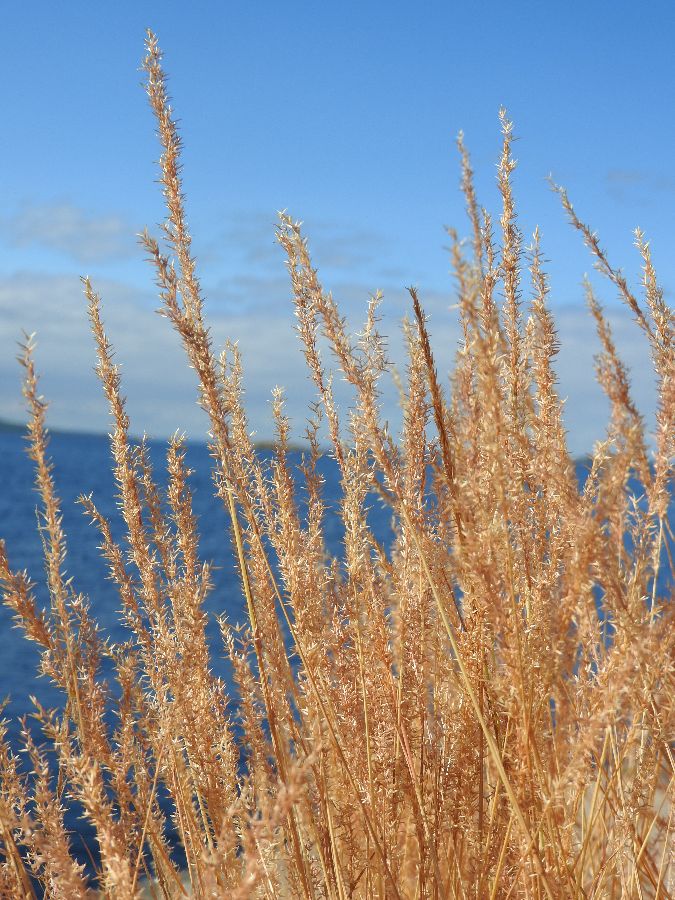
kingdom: Plantae
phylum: Tracheophyta
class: Liliopsida
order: Poales
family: Poaceae
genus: Agrostis
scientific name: Agrostis stolonifera
